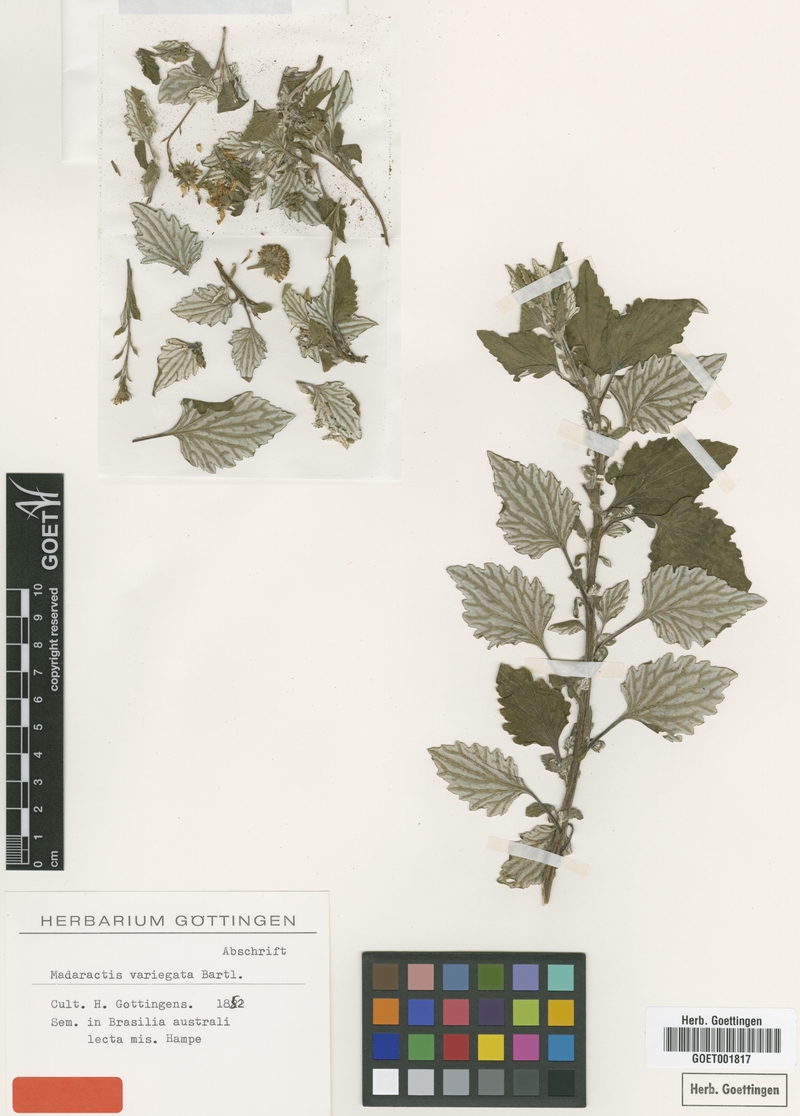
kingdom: Plantae
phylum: Tracheophyta
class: Magnoliopsida
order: Asterales
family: Asteraceae
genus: Senecio
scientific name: Senecio Madaractis variegata
